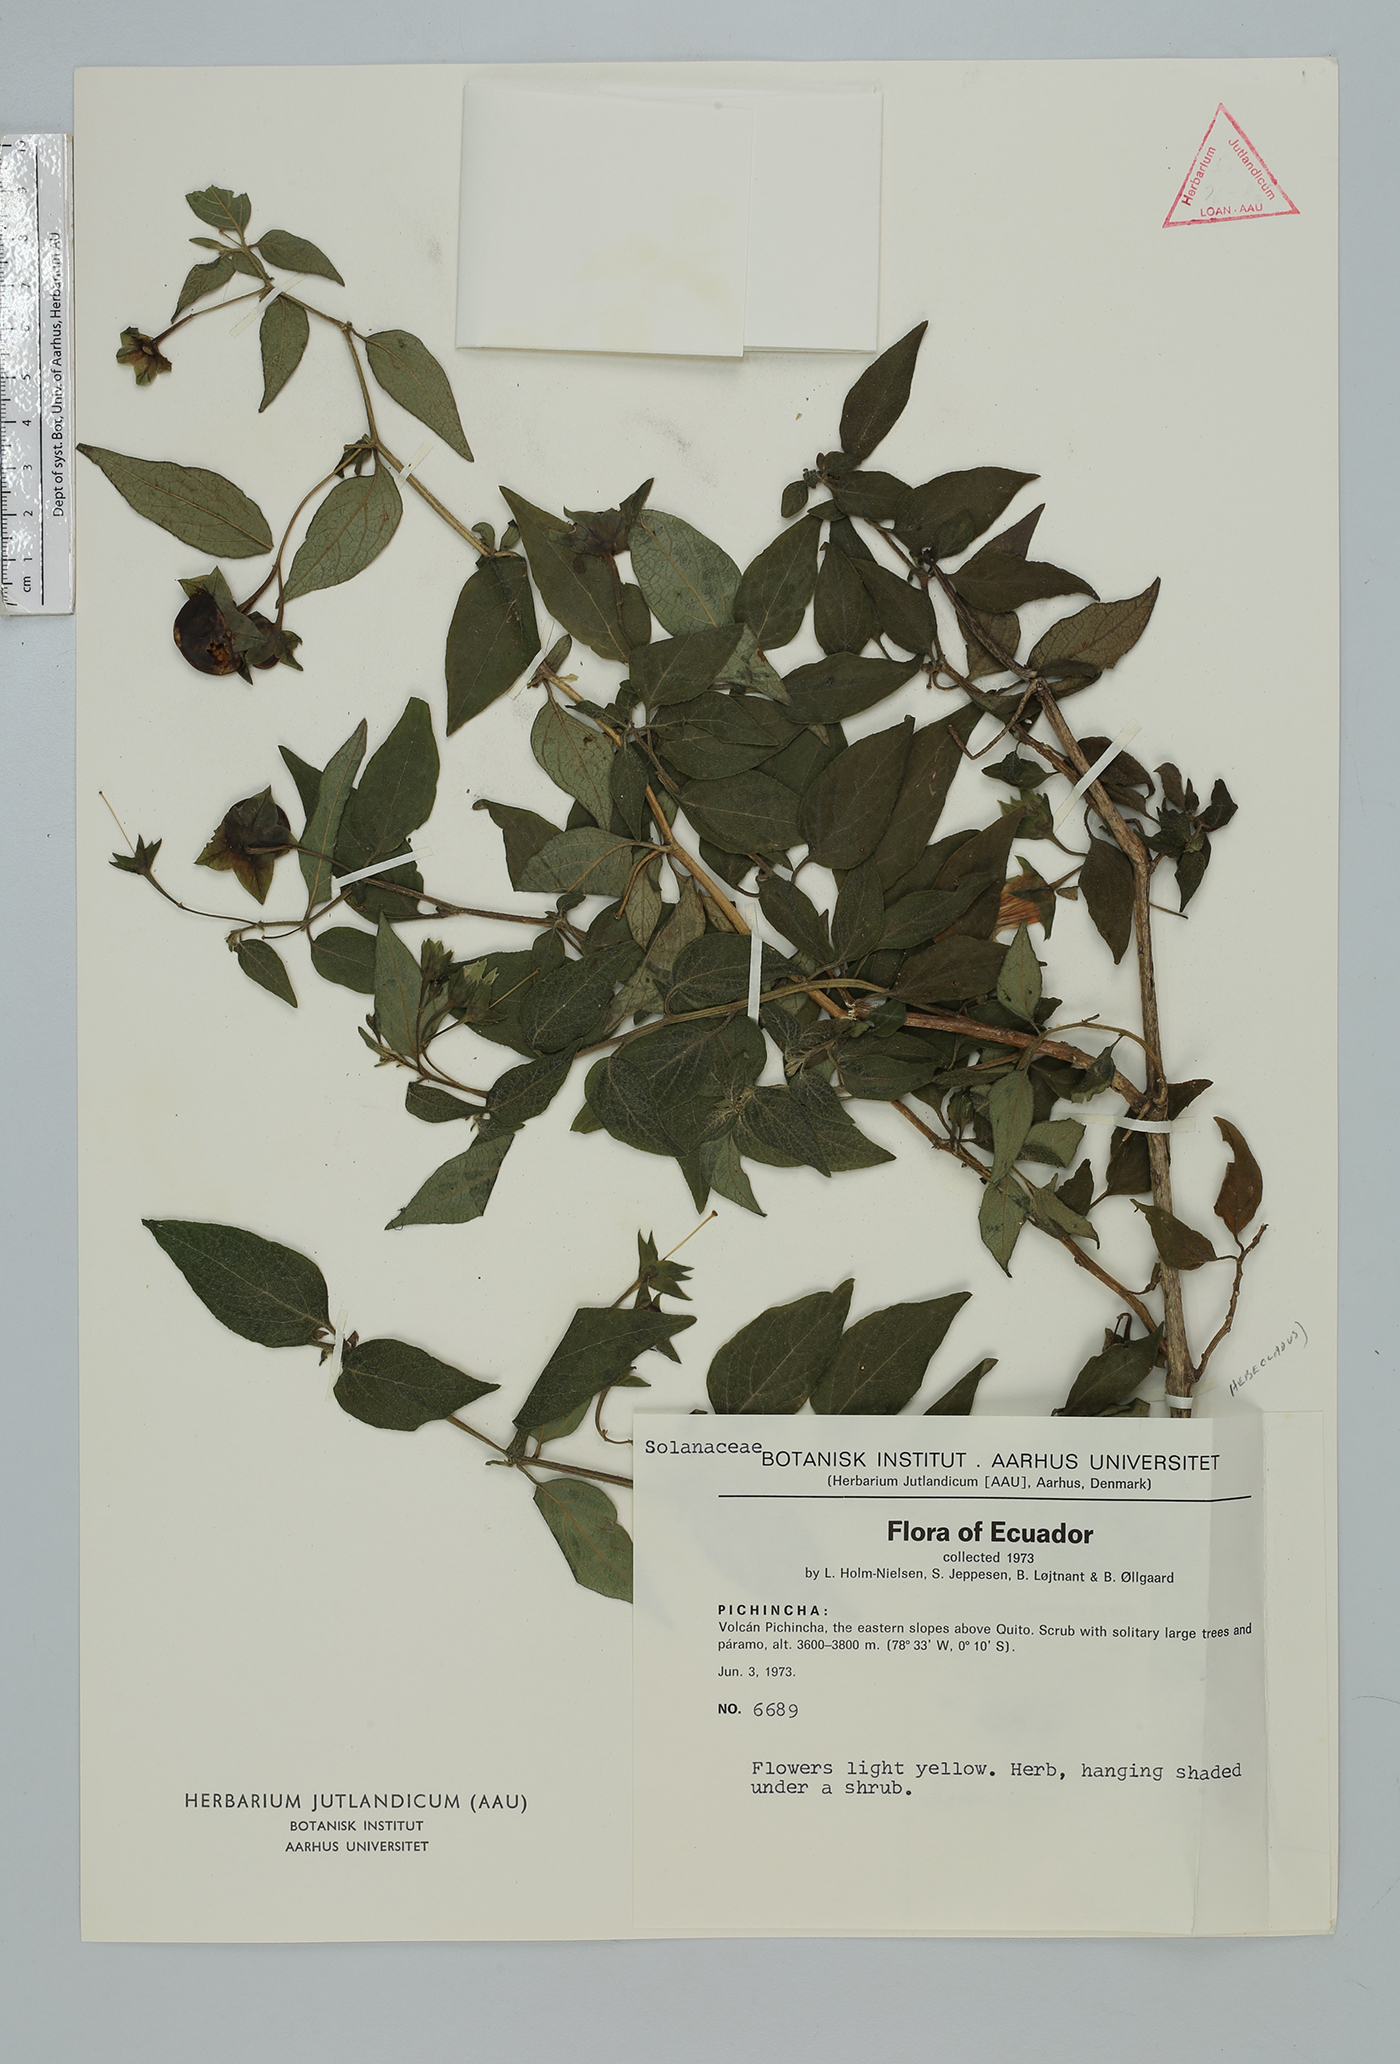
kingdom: Plantae
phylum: Tracheophyta
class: Magnoliopsida
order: Solanales
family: Solanaceae
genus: Jaltomata
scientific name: Jaltomata
